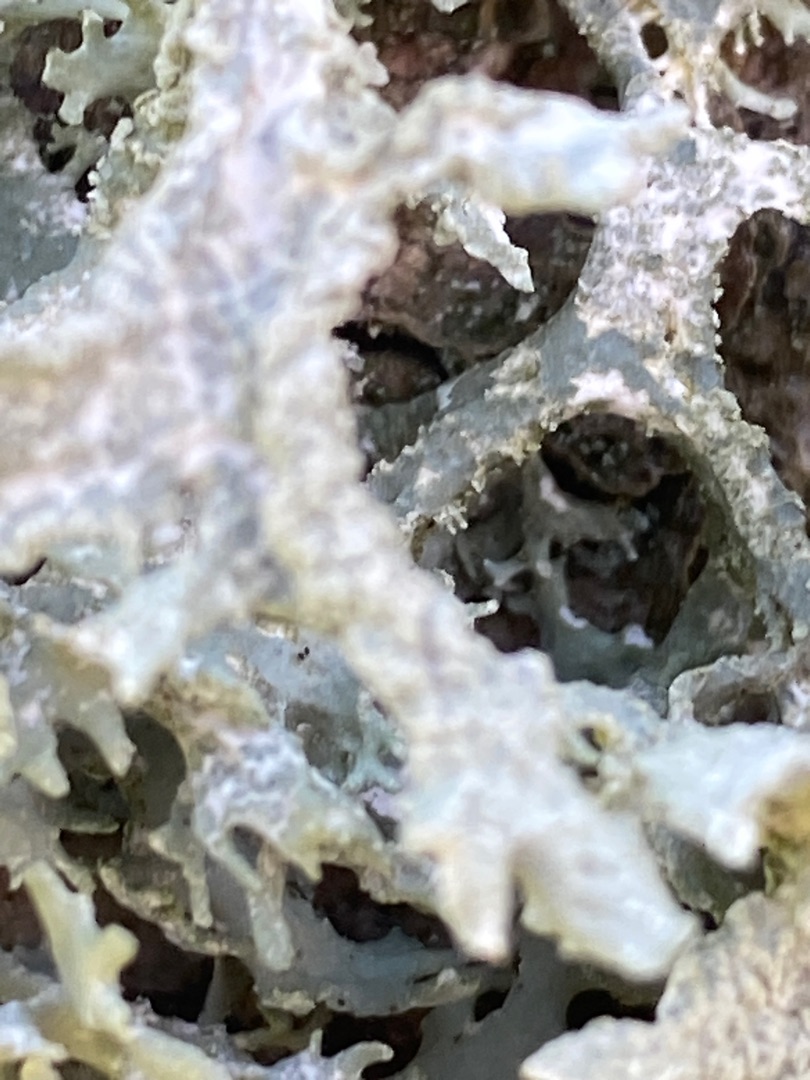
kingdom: Fungi
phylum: Ascomycota
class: Lecanoromycetes
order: Lecanorales
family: Parmeliaceae
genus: Evernia
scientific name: Evernia prunastri
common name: Almindelig slåenlav
